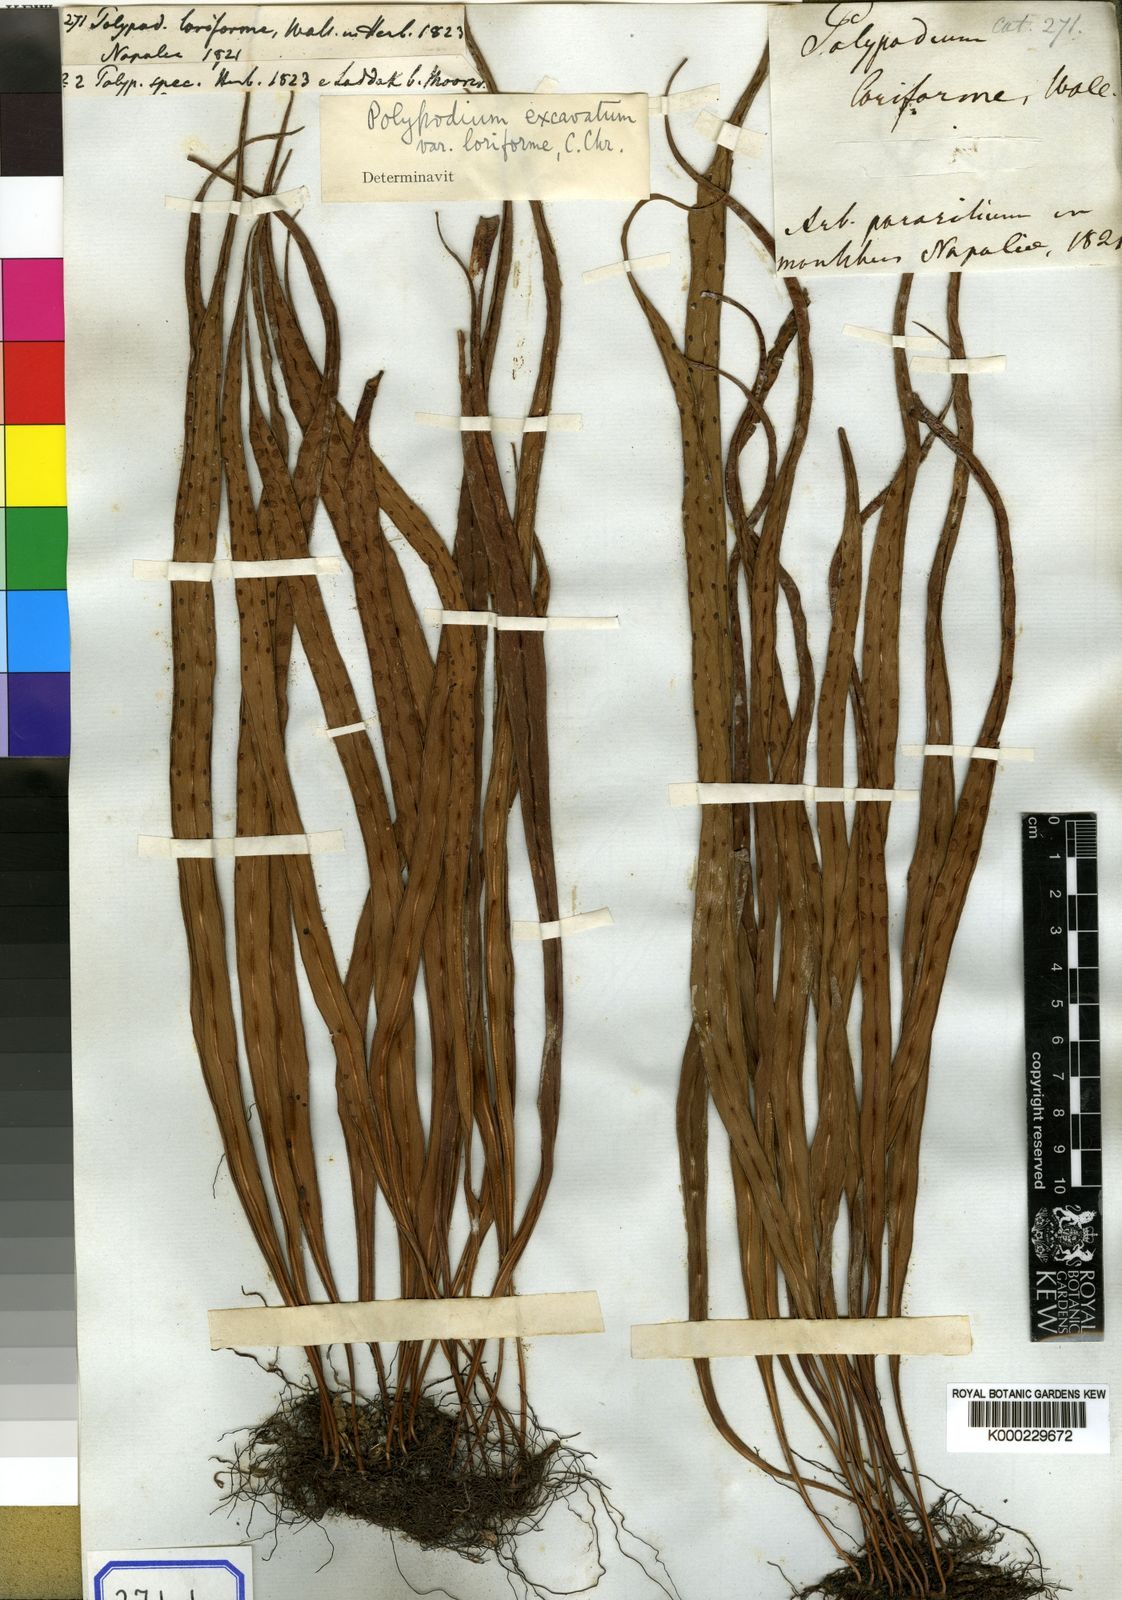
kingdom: Plantae
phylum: Tracheophyta
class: Polypodiopsida
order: Polypodiales
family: Polypodiaceae
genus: Lepisorus
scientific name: Lepisorus loriformis
